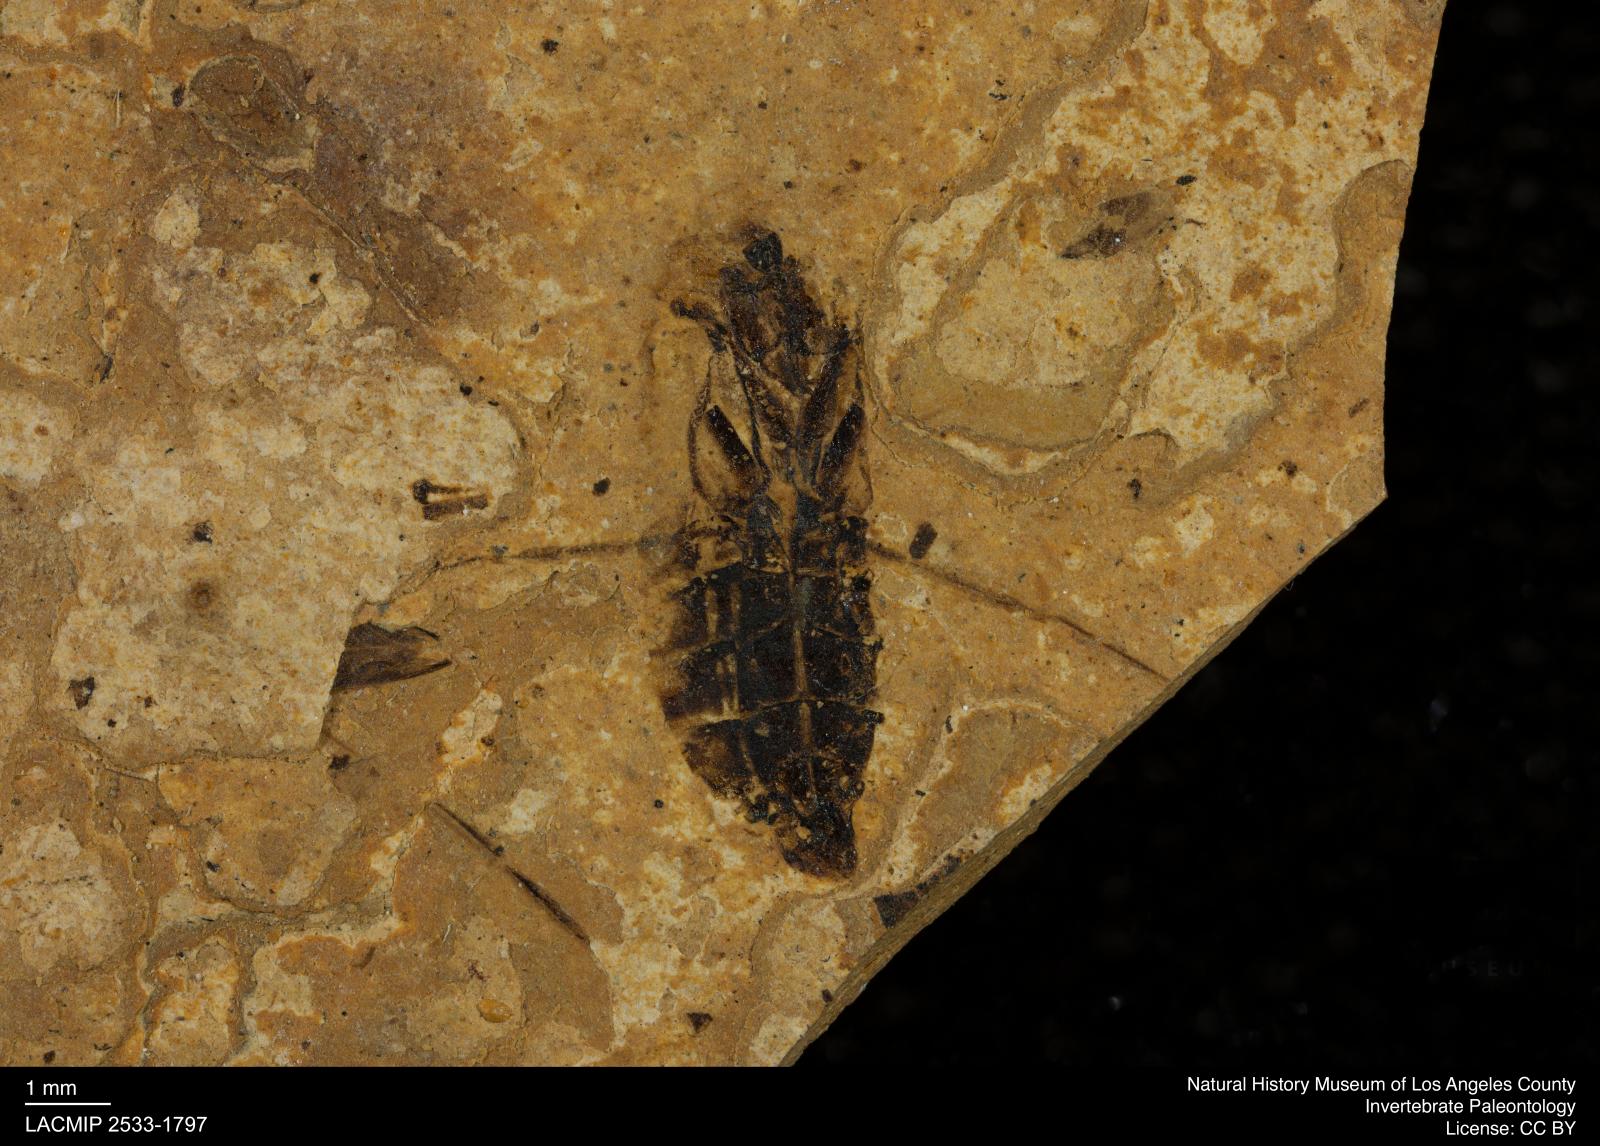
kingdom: Animalia
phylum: Arthropoda
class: Insecta
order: Hemiptera
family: Notonectidae
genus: Notonecta
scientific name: Notonecta
